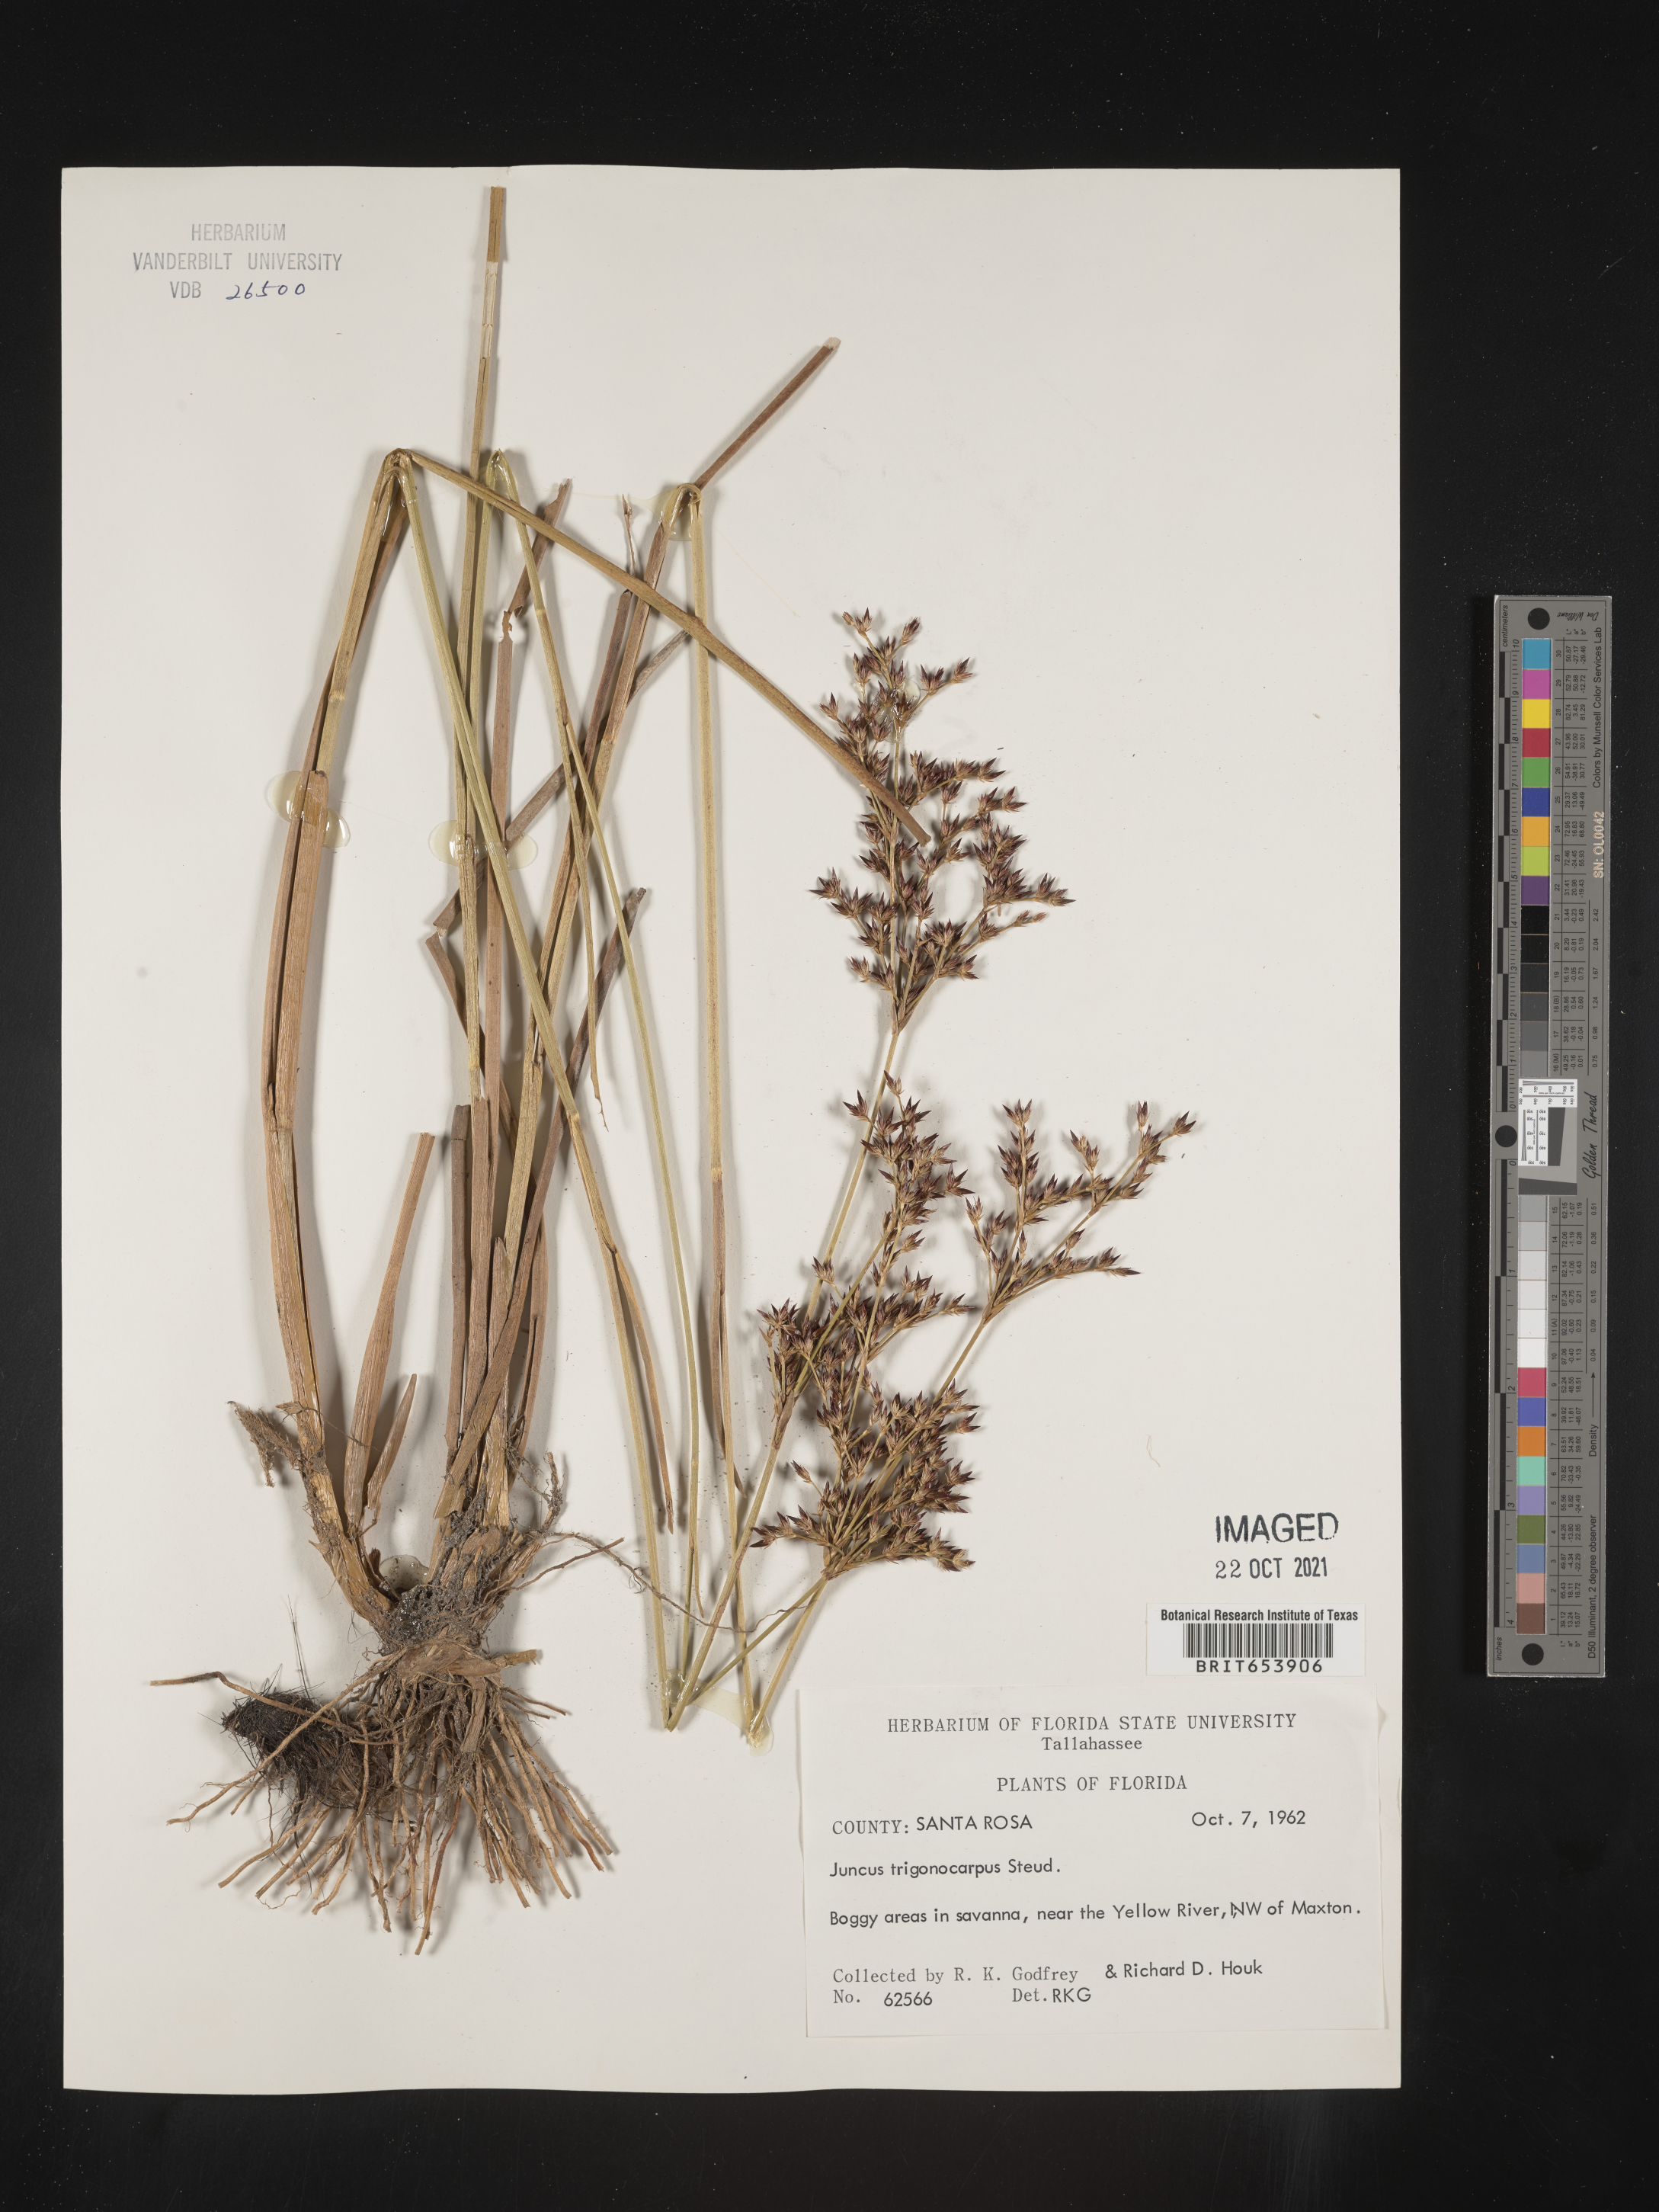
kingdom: Plantae
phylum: Tracheophyta
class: Liliopsida
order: Poales
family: Juncaceae
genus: Juncus
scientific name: Juncus trigonocarpus
